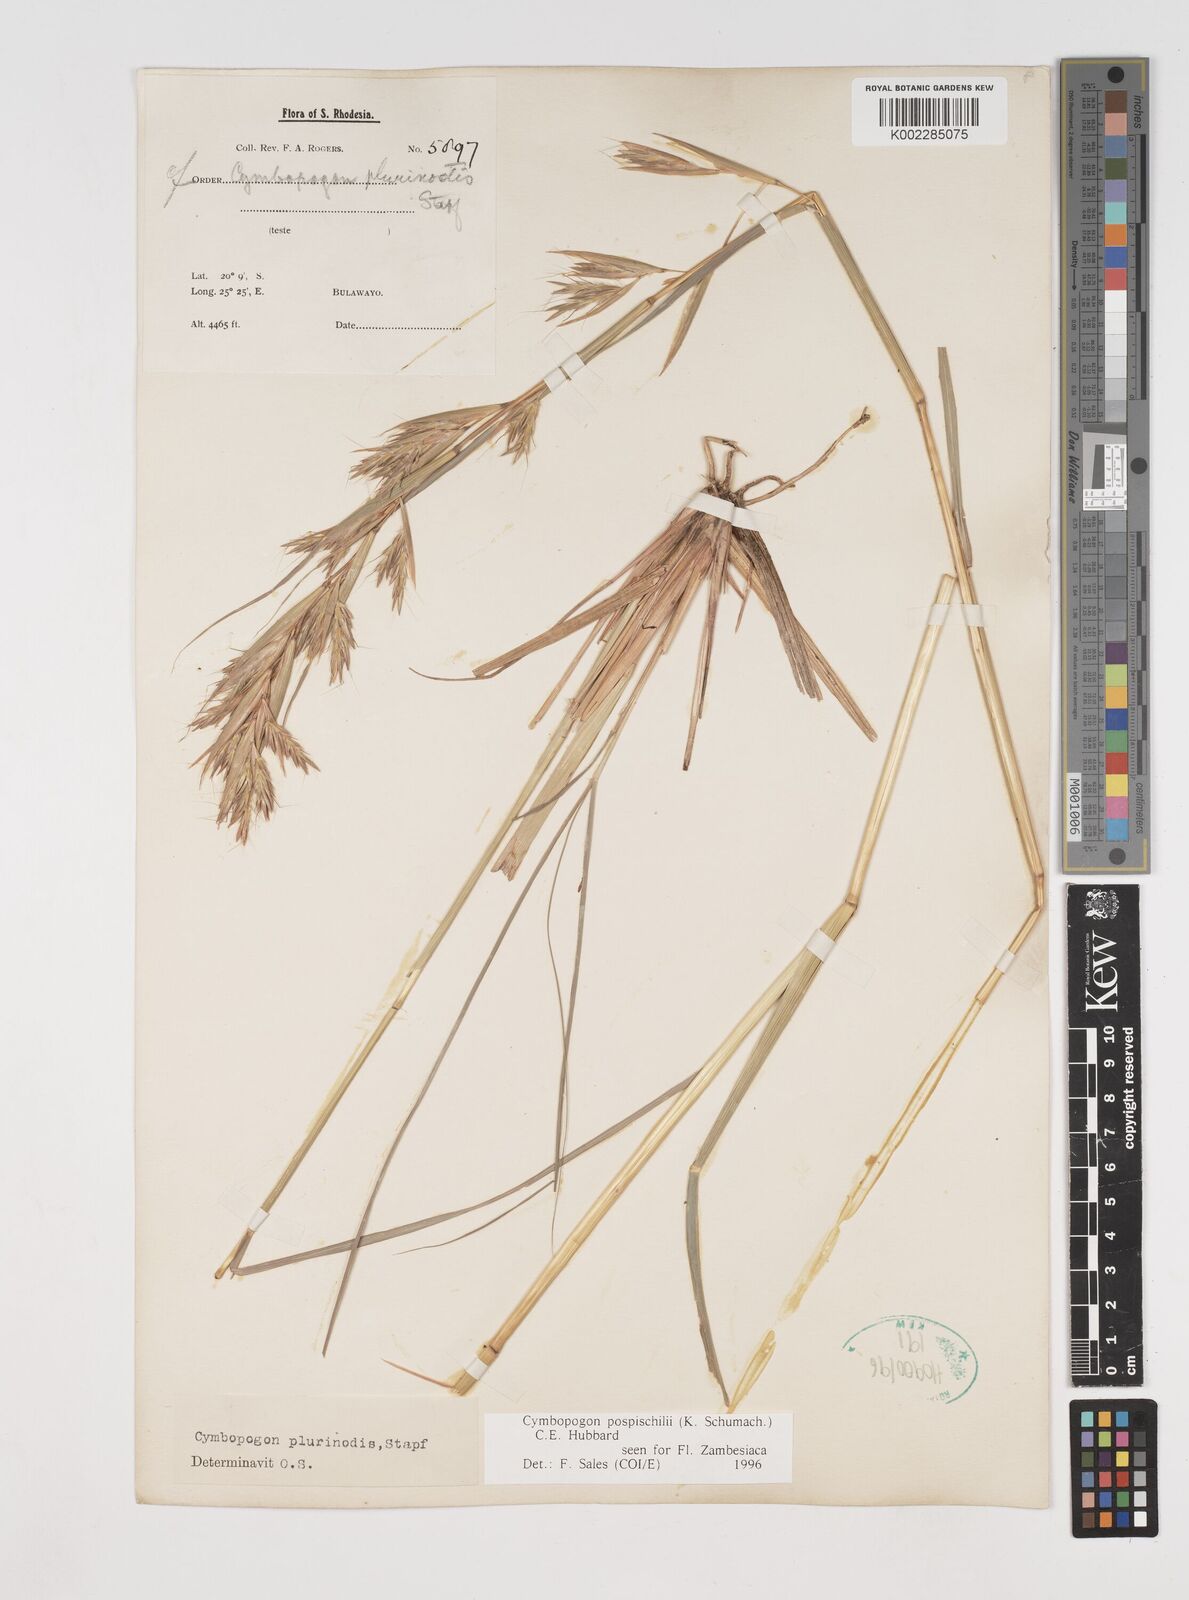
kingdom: Plantae
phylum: Tracheophyta
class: Liliopsida
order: Poales
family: Poaceae
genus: Cymbopogon
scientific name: Cymbopogon pospischilii
